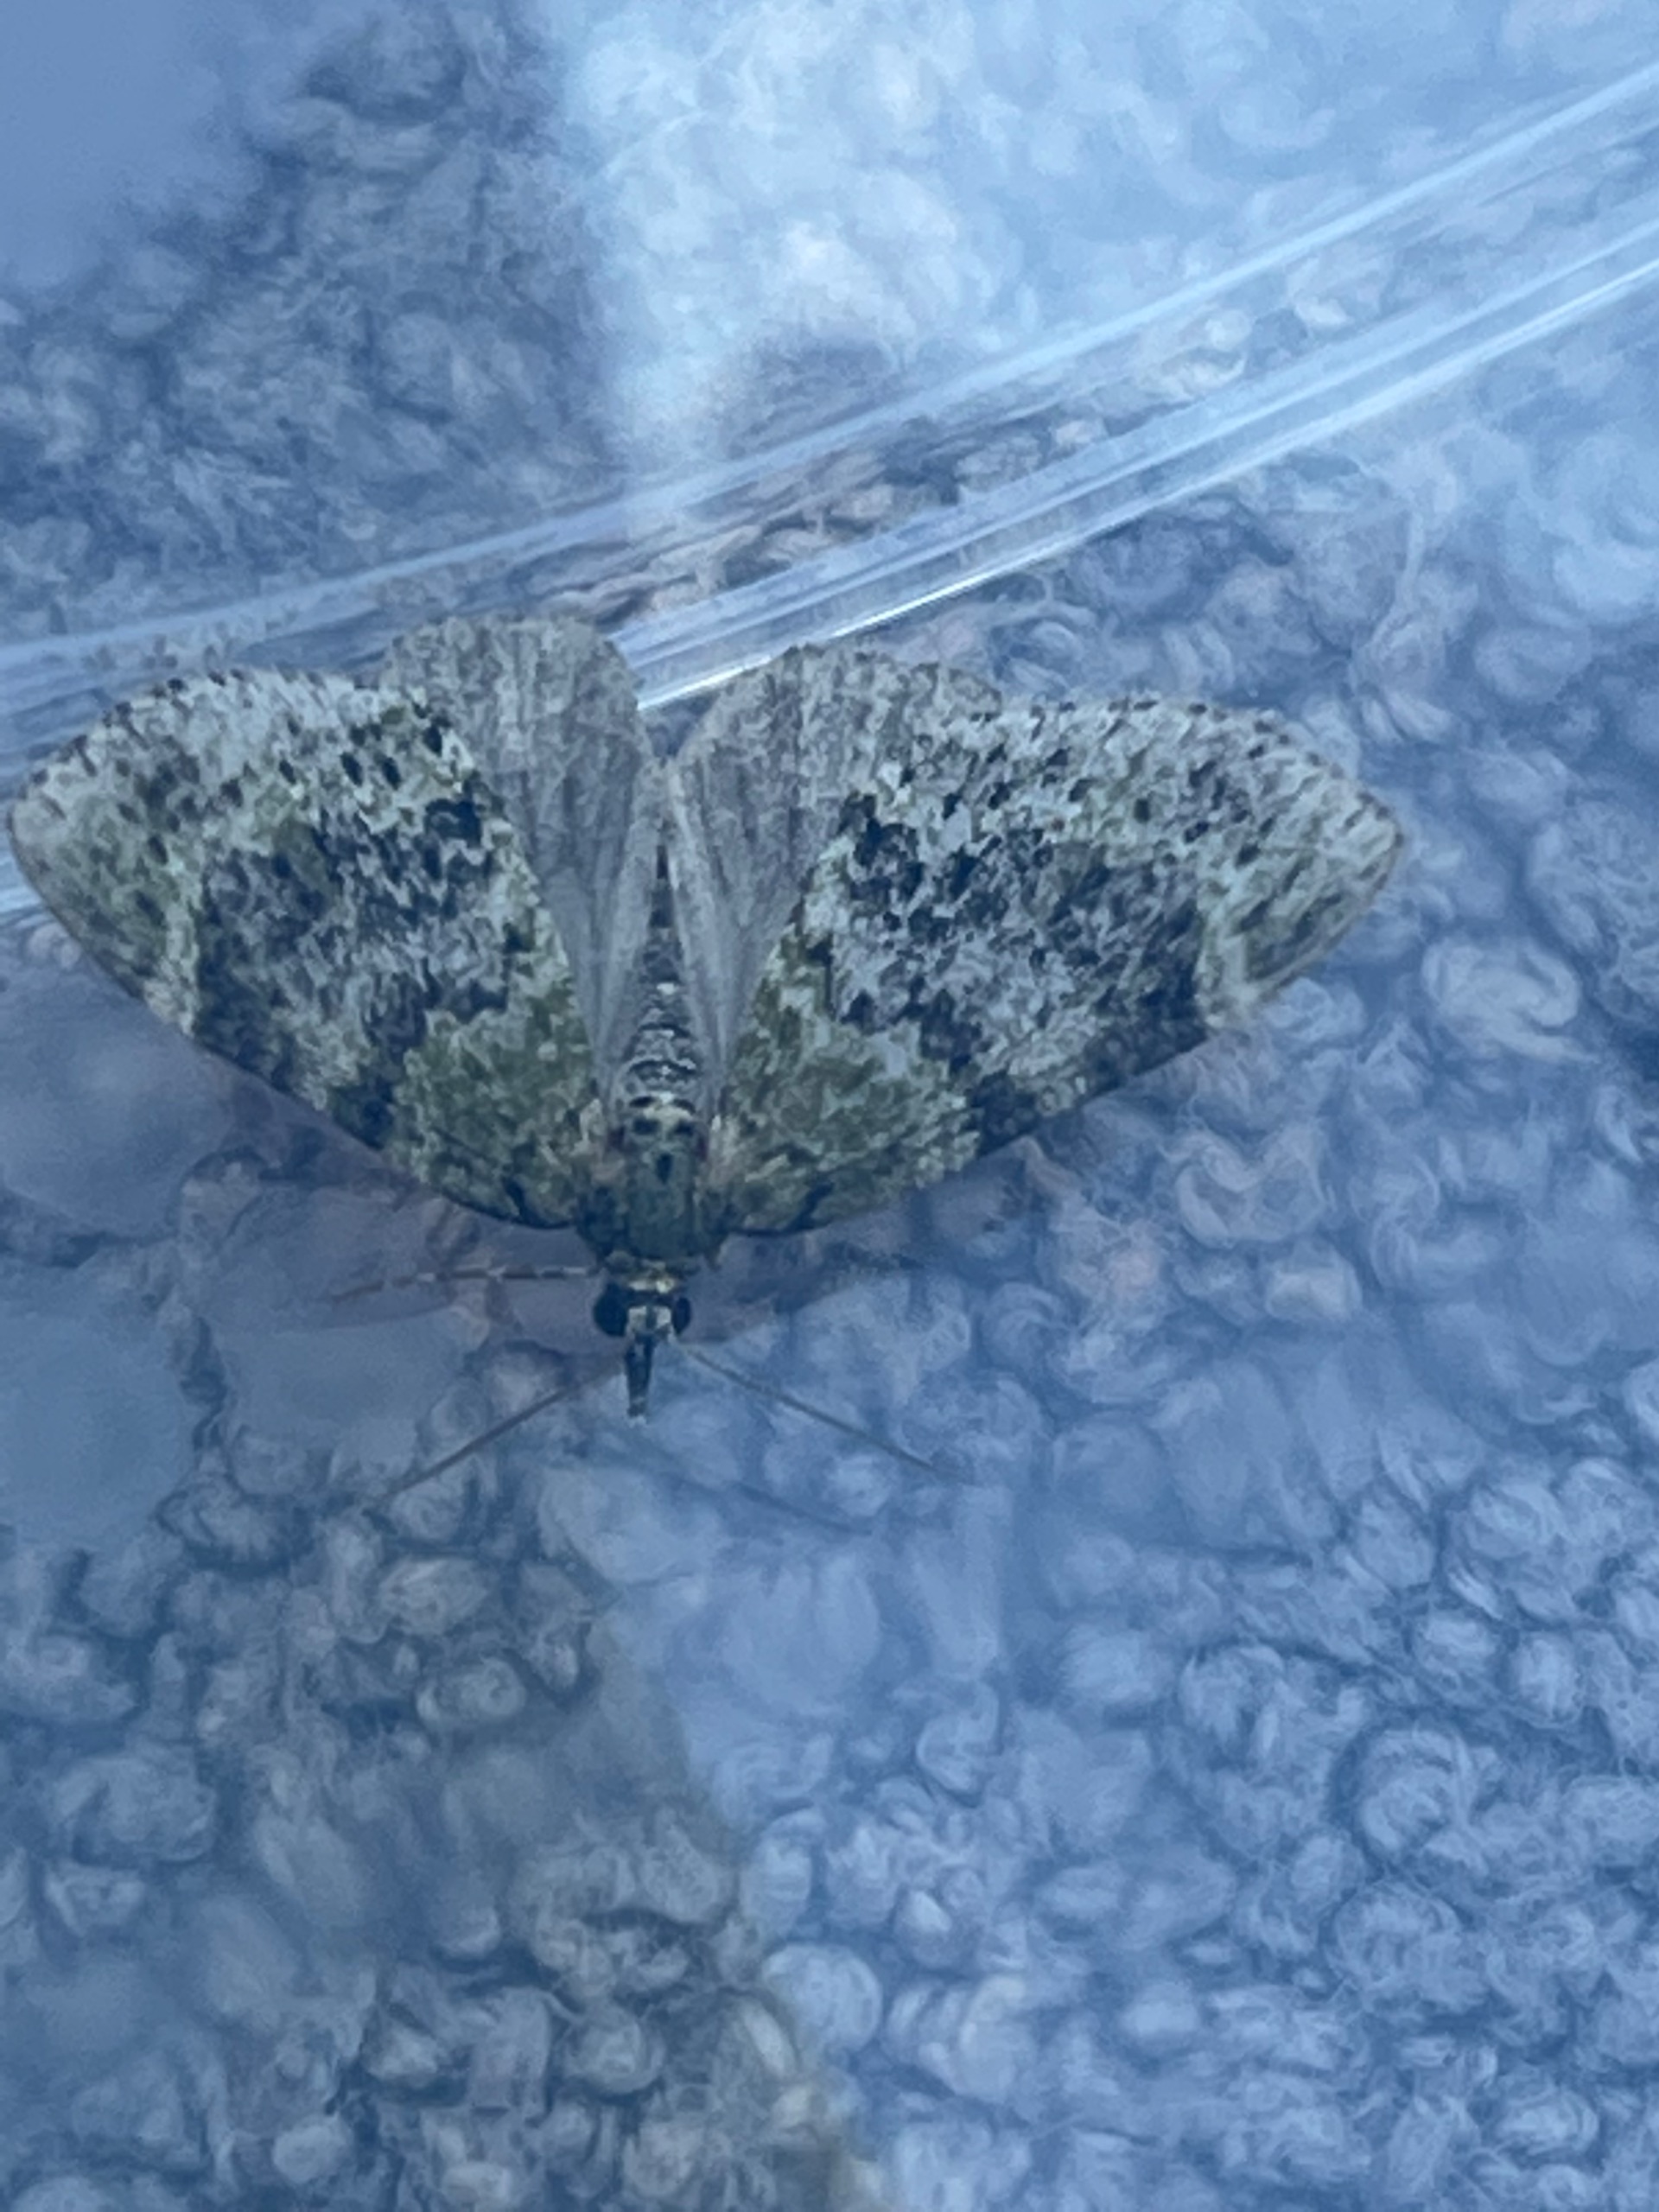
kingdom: Animalia
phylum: Arthropoda
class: Insecta
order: Lepidoptera
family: Geometridae
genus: Acasis
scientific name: Acasis viretata
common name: Tørstetræblomstmåler
